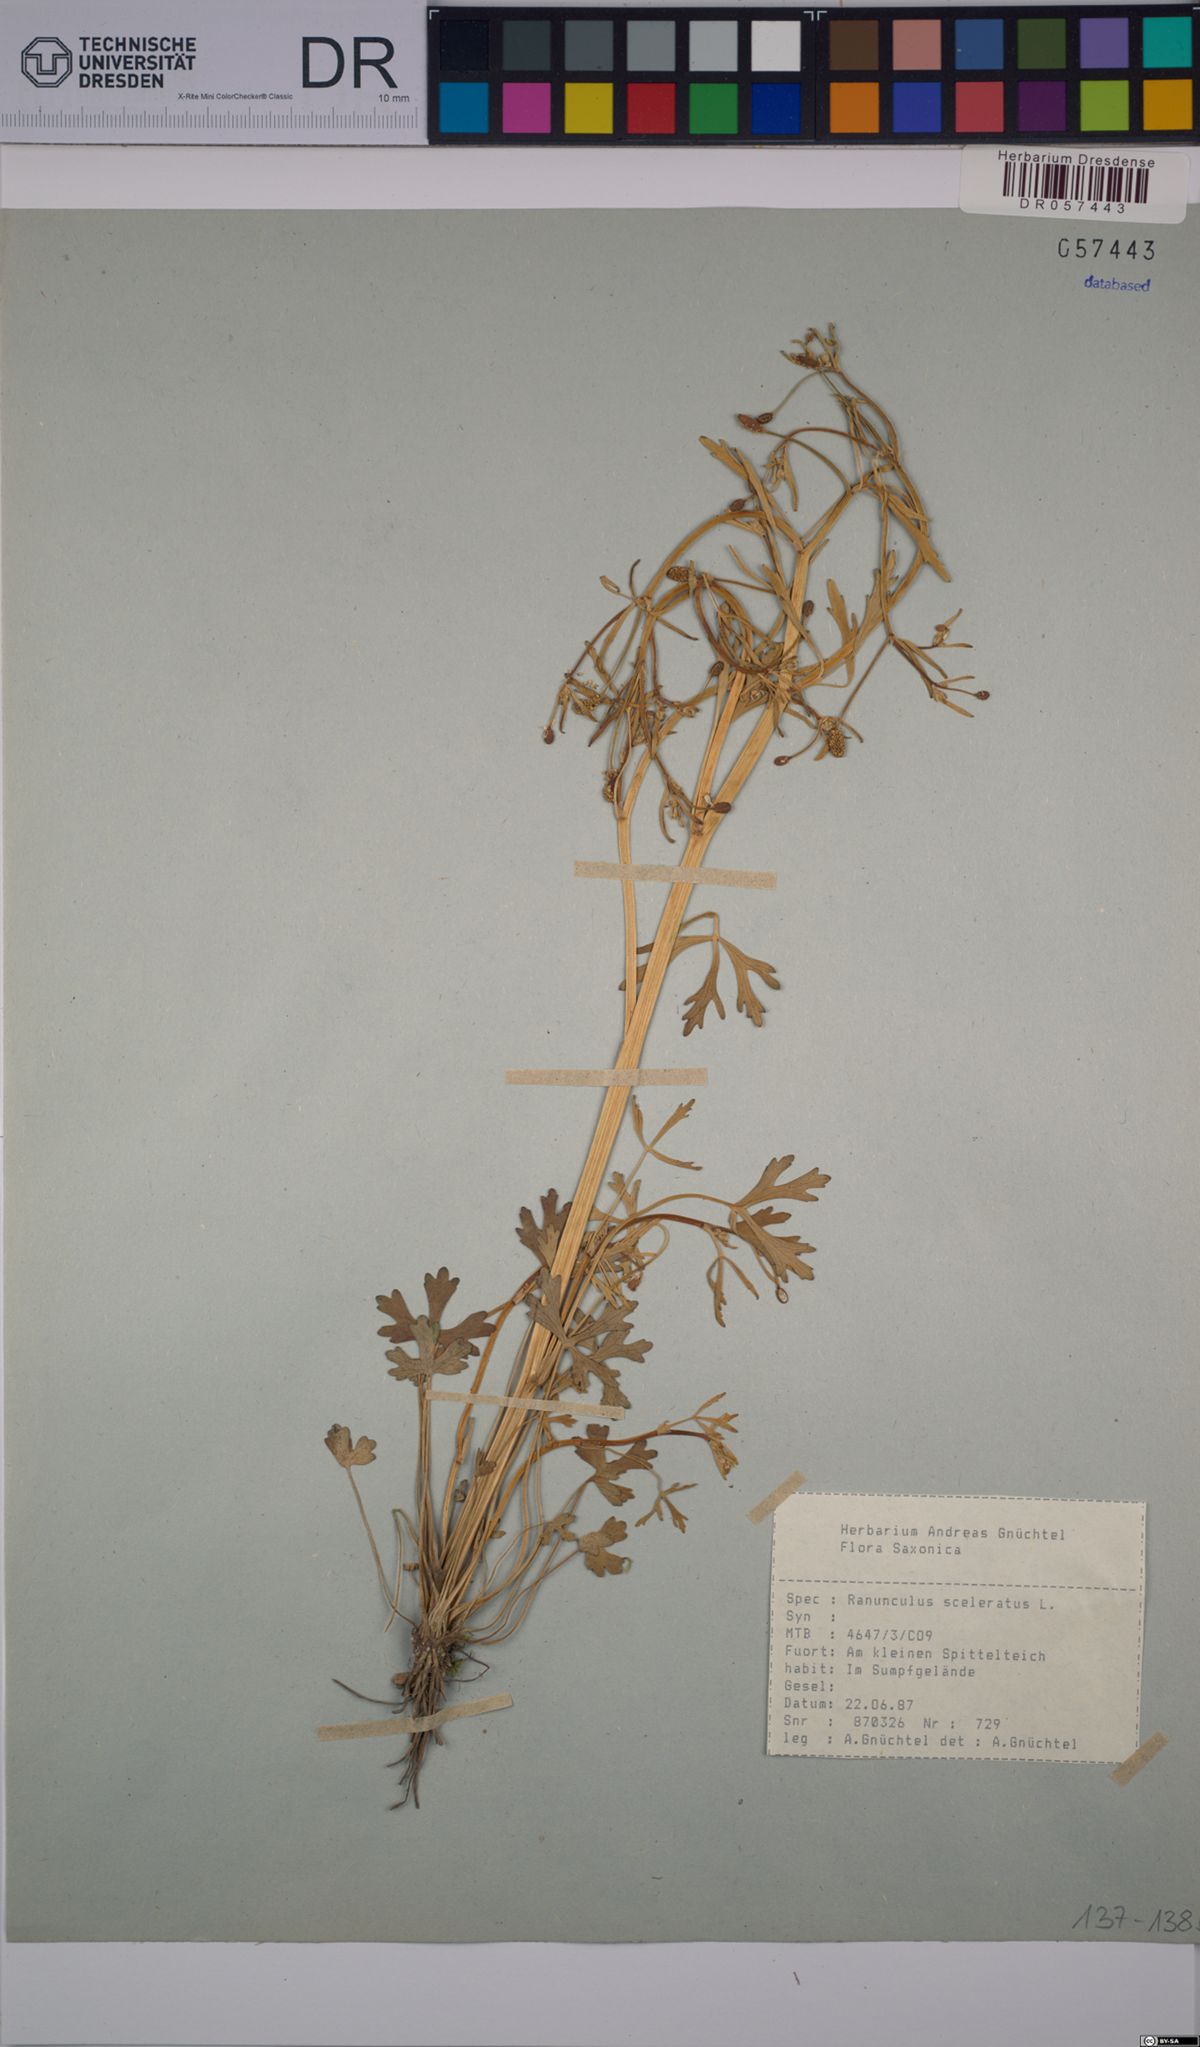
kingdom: Plantae
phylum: Tracheophyta
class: Magnoliopsida
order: Ranunculales
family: Ranunculaceae
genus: Ranunculus
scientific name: Ranunculus sceleratus
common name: Celery-leaved buttercup
